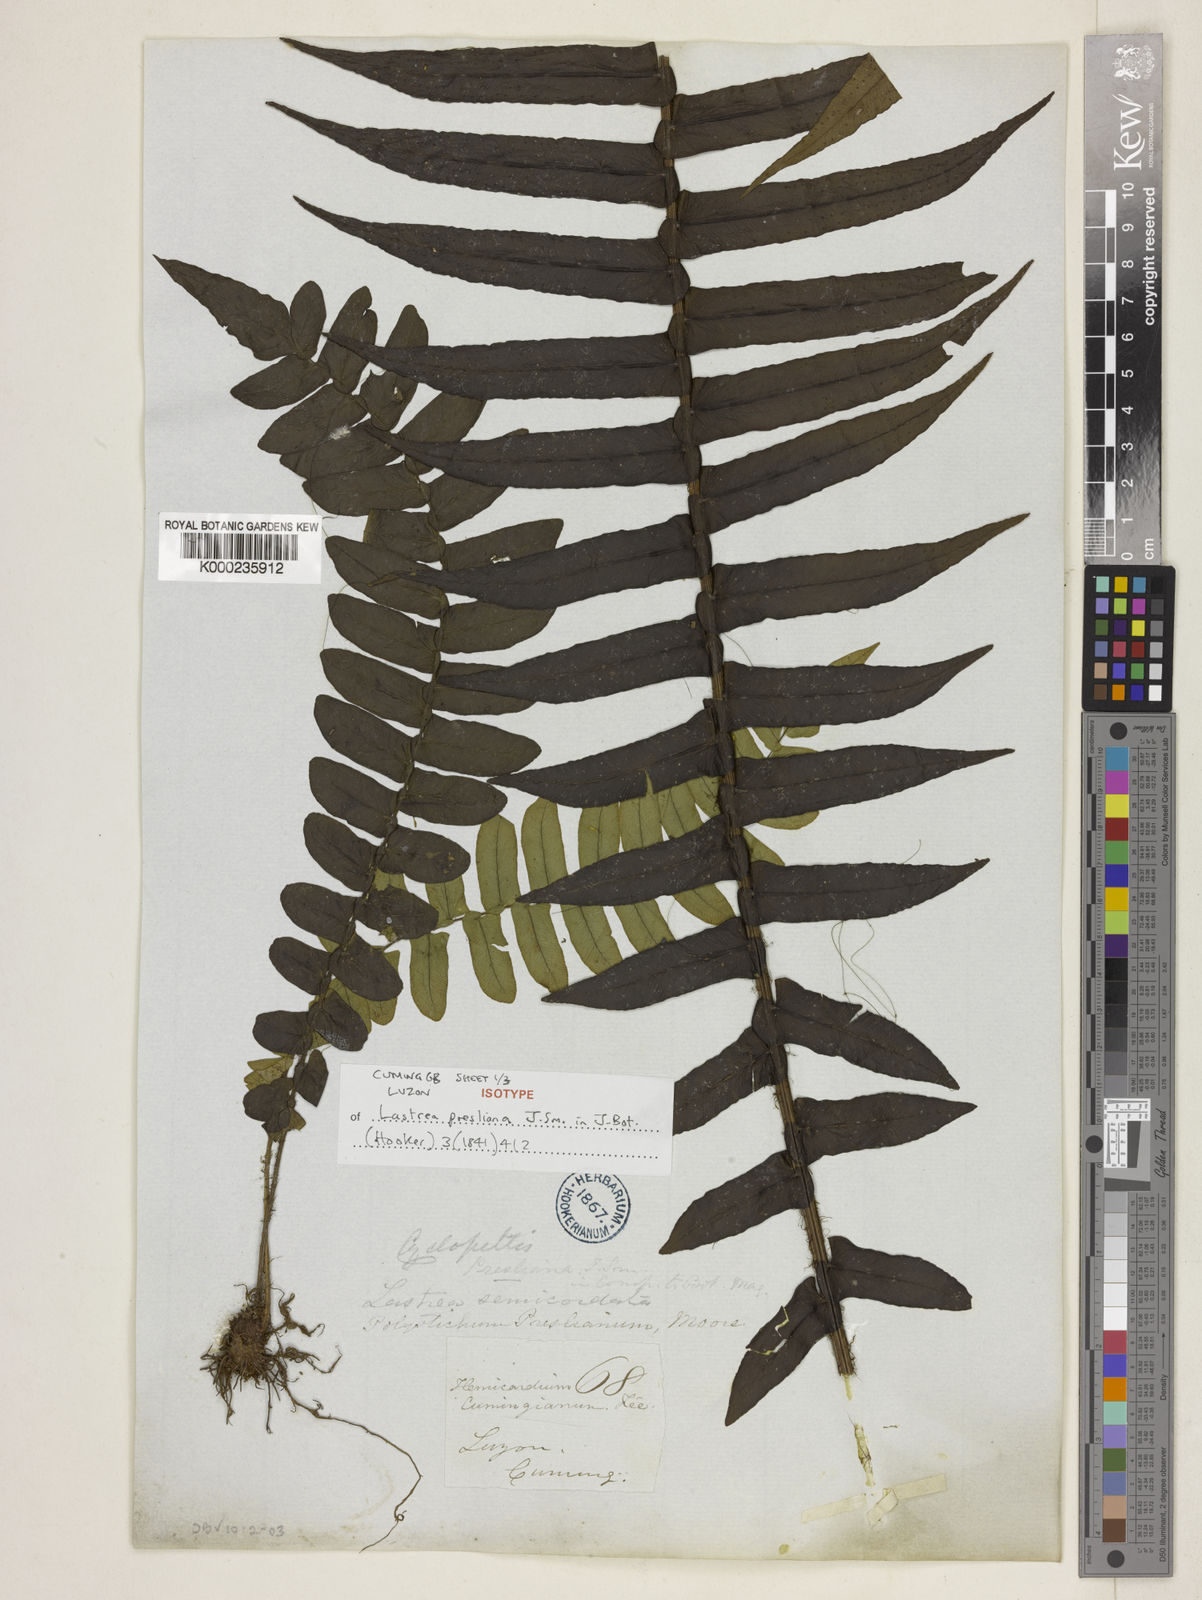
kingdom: Plantae
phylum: Tracheophyta
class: Polypodiopsida
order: Polypodiales
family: Lomariopsidaceae
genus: Cyclopeltis
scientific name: Cyclopeltis presliana
